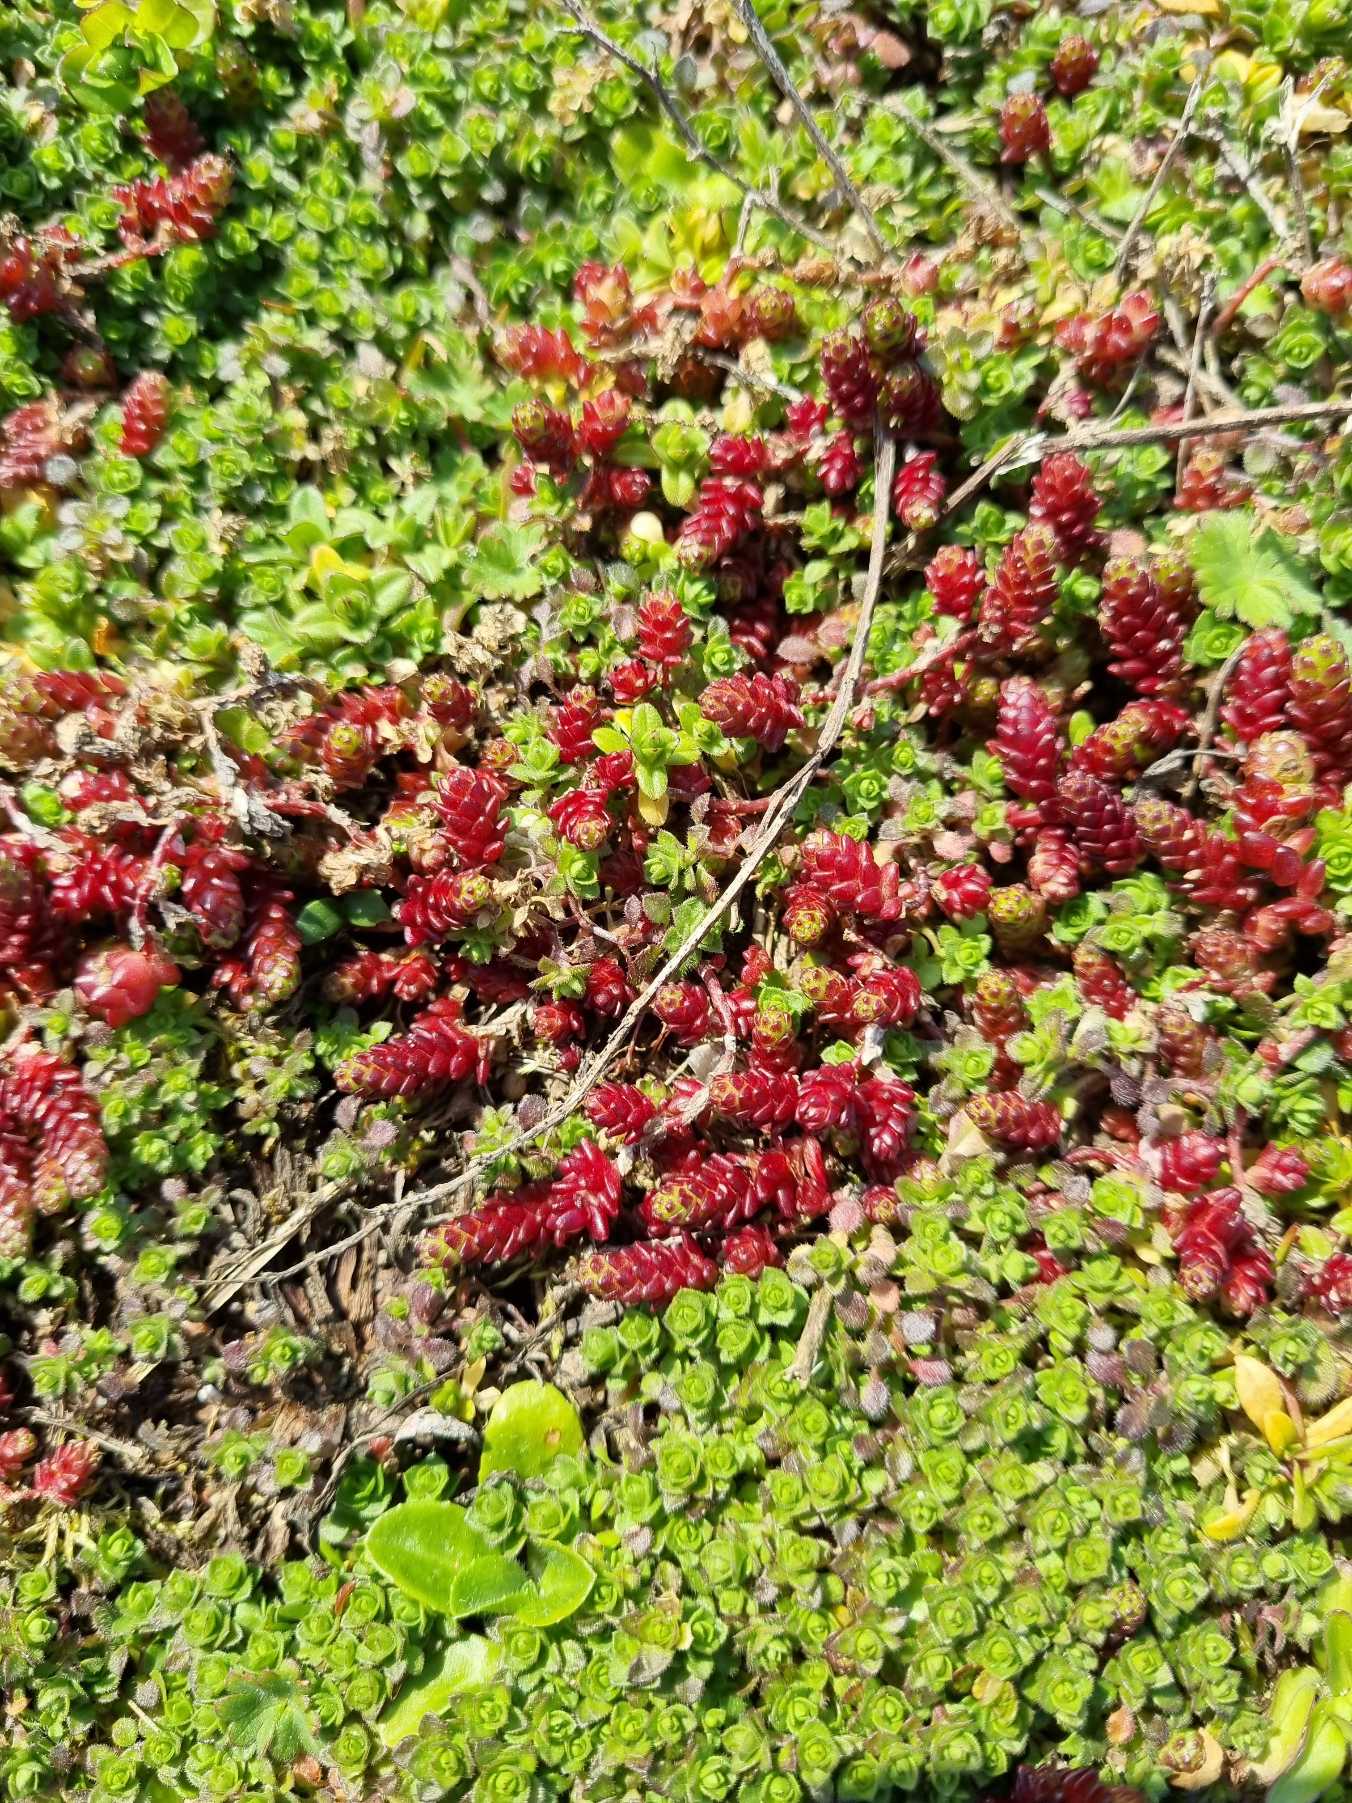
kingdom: Plantae
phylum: Tracheophyta
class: Magnoliopsida
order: Saxifragales
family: Crassulaceae
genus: Sedum
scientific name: Sedum acre
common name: Bidende stenurt
